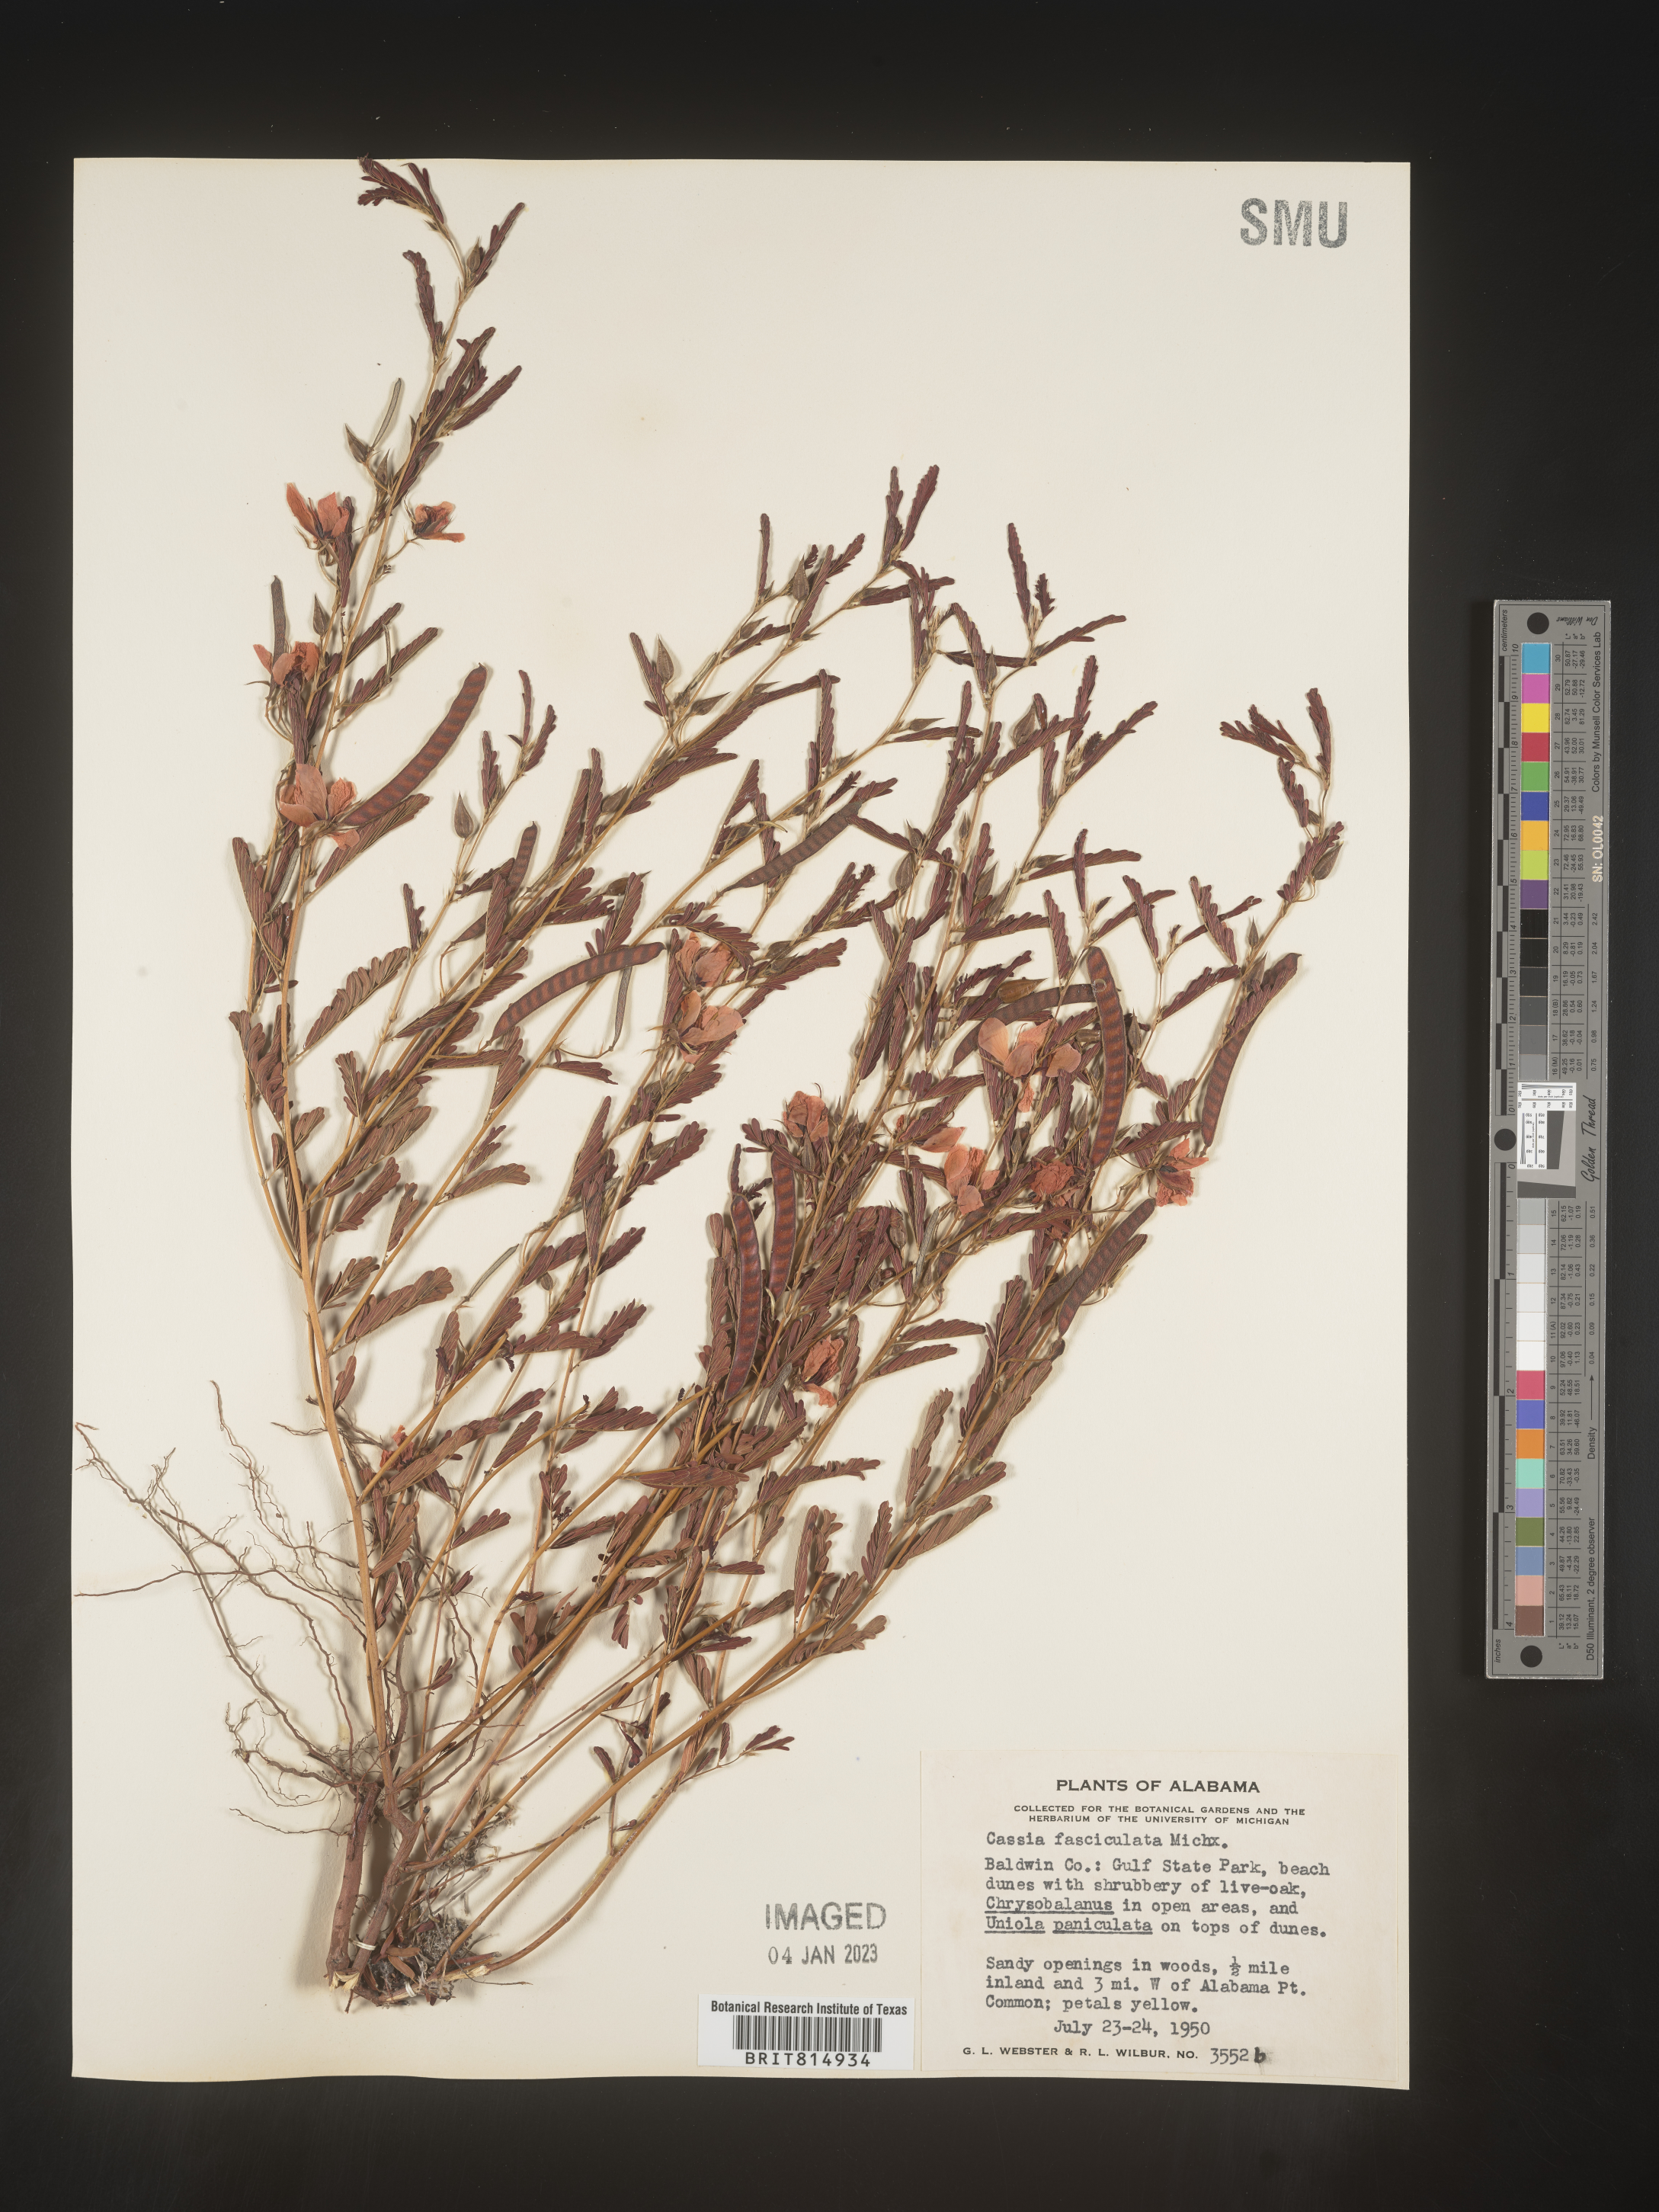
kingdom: Plantae
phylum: Tracheophyta
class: Magnoliopsida
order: Fabales
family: Fabaceae
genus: Chamaecrista
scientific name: Chamaecrista fasciculata
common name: Golden cassia
